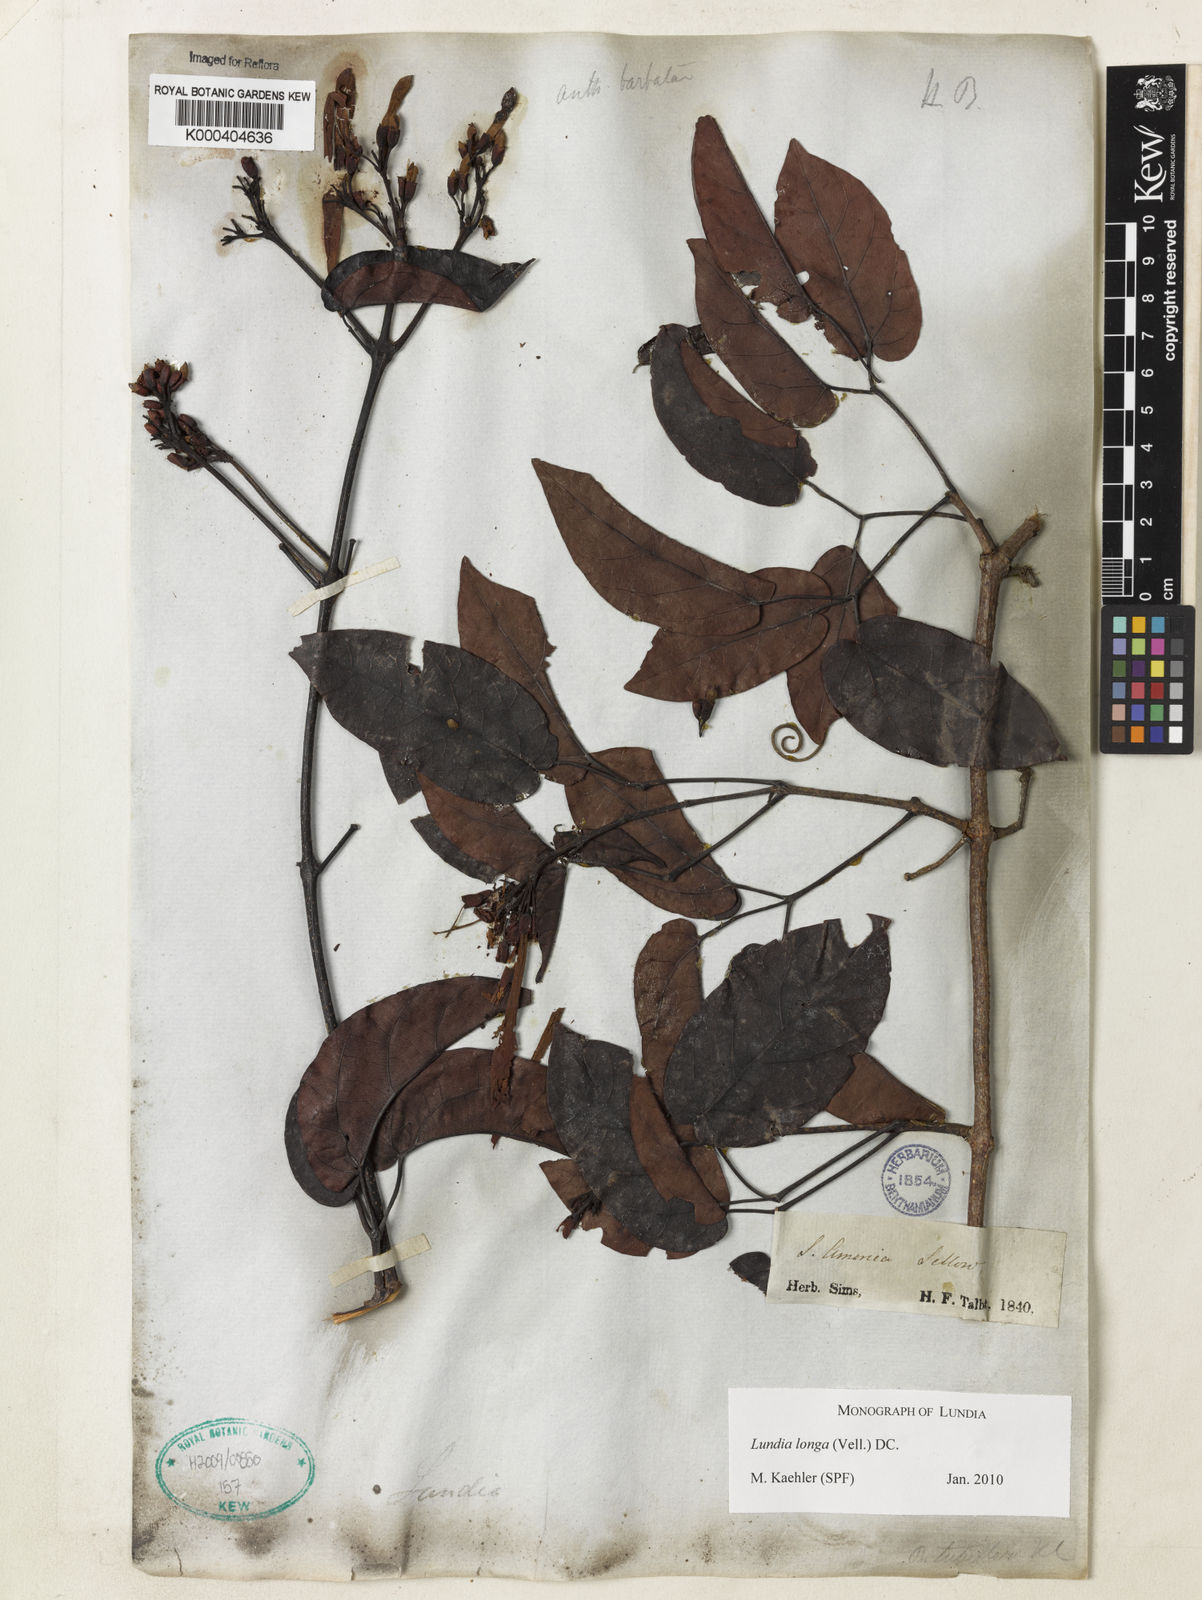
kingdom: Plantae
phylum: Tracheophyta
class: Magnoliopsida
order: Lamiales
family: Bignoniaceae
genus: Lundia
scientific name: Lundia longa
